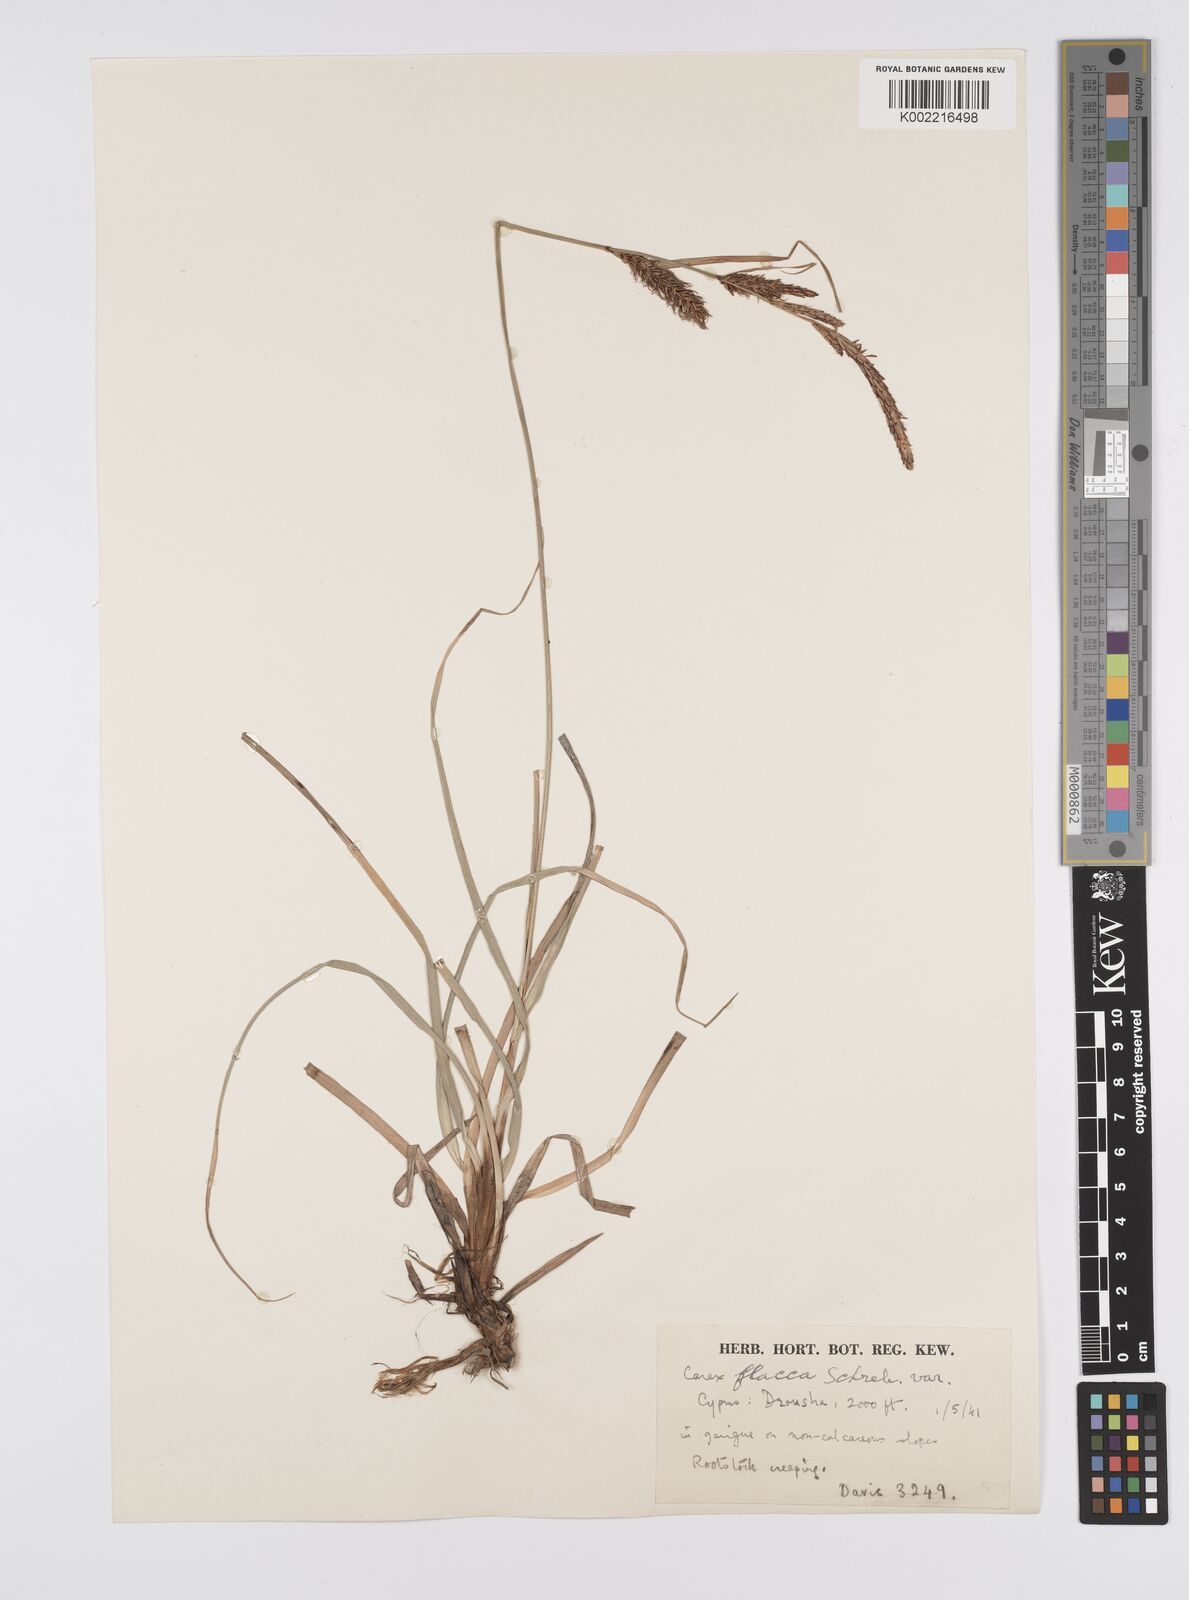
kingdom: Plantae
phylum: Tracheophyta
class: Liliopsida
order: Poales
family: Cyperaceae
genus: Carex
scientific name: Carex flacca
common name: Glaucous sedge
